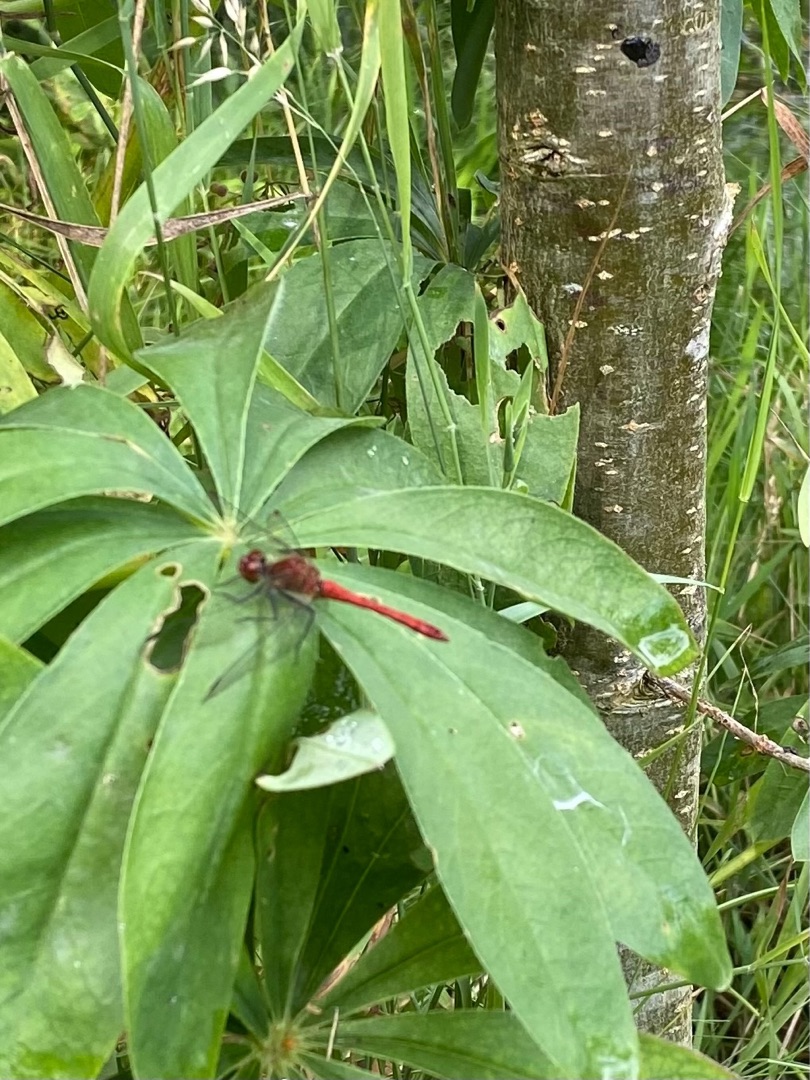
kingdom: Animalia
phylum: Arthropoda
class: Insecta
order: Odonata
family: Libellulidae
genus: Sympetrum
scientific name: Sympetrum sanguineum
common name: Blodrød hedelibel
